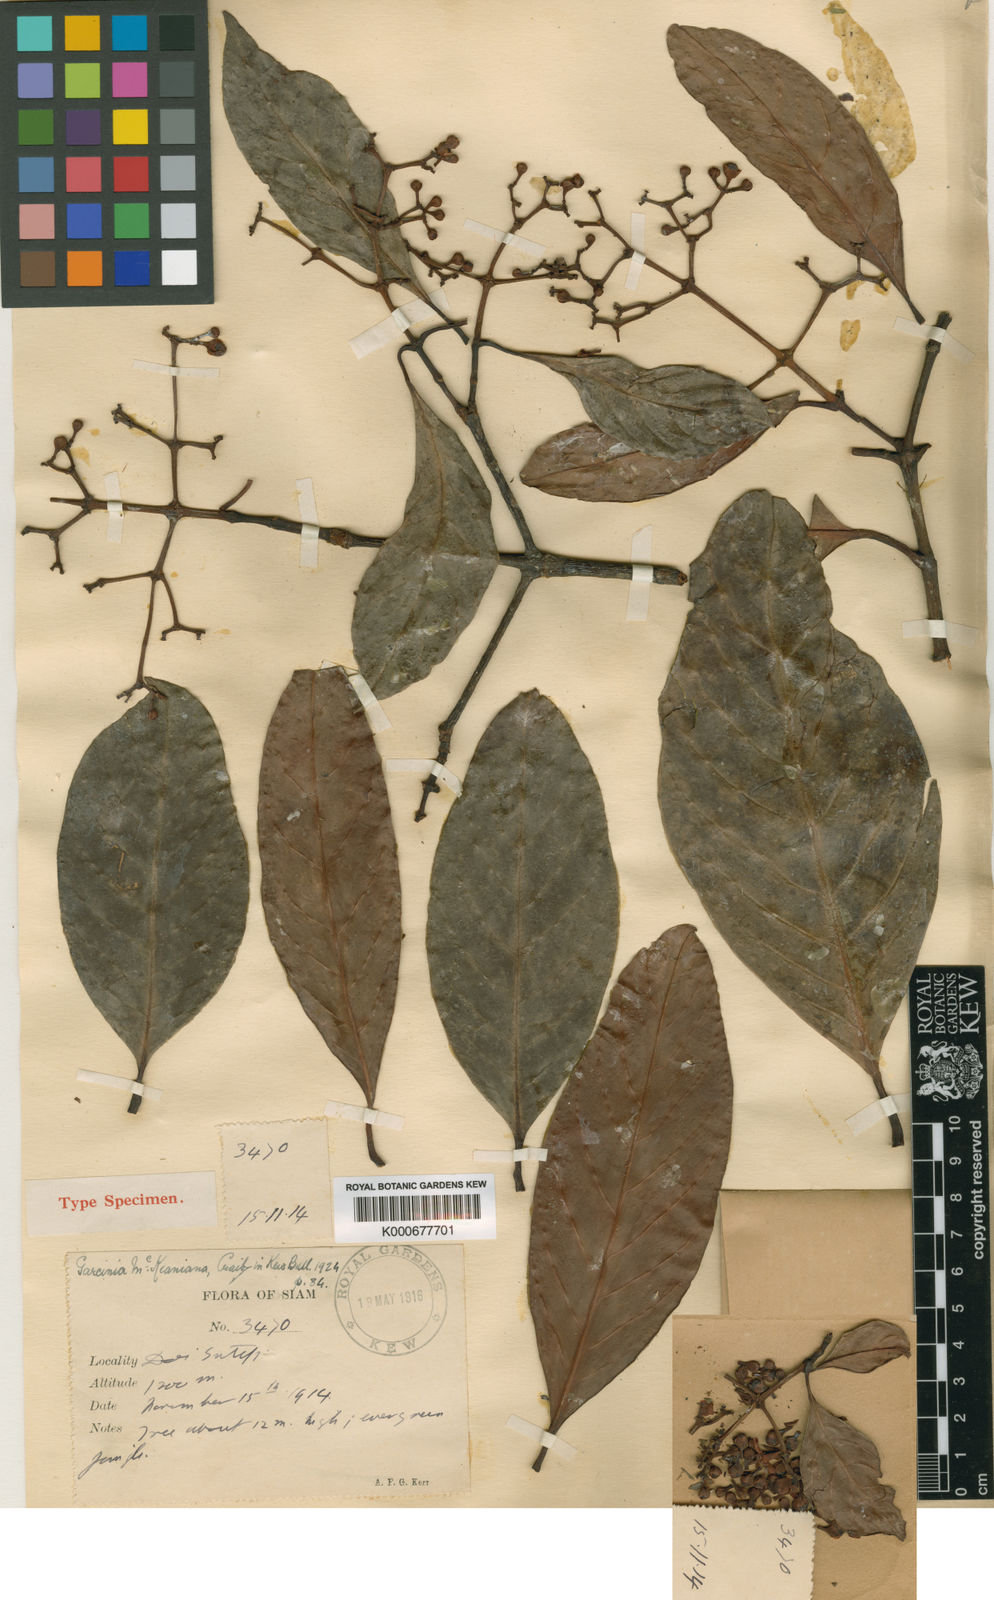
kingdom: Plantae
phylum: Tracheophyta
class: Magnoliopsida
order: Malpighiales
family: Clusiaceae
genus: Garcinia
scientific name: Garcinia mckeaniana
